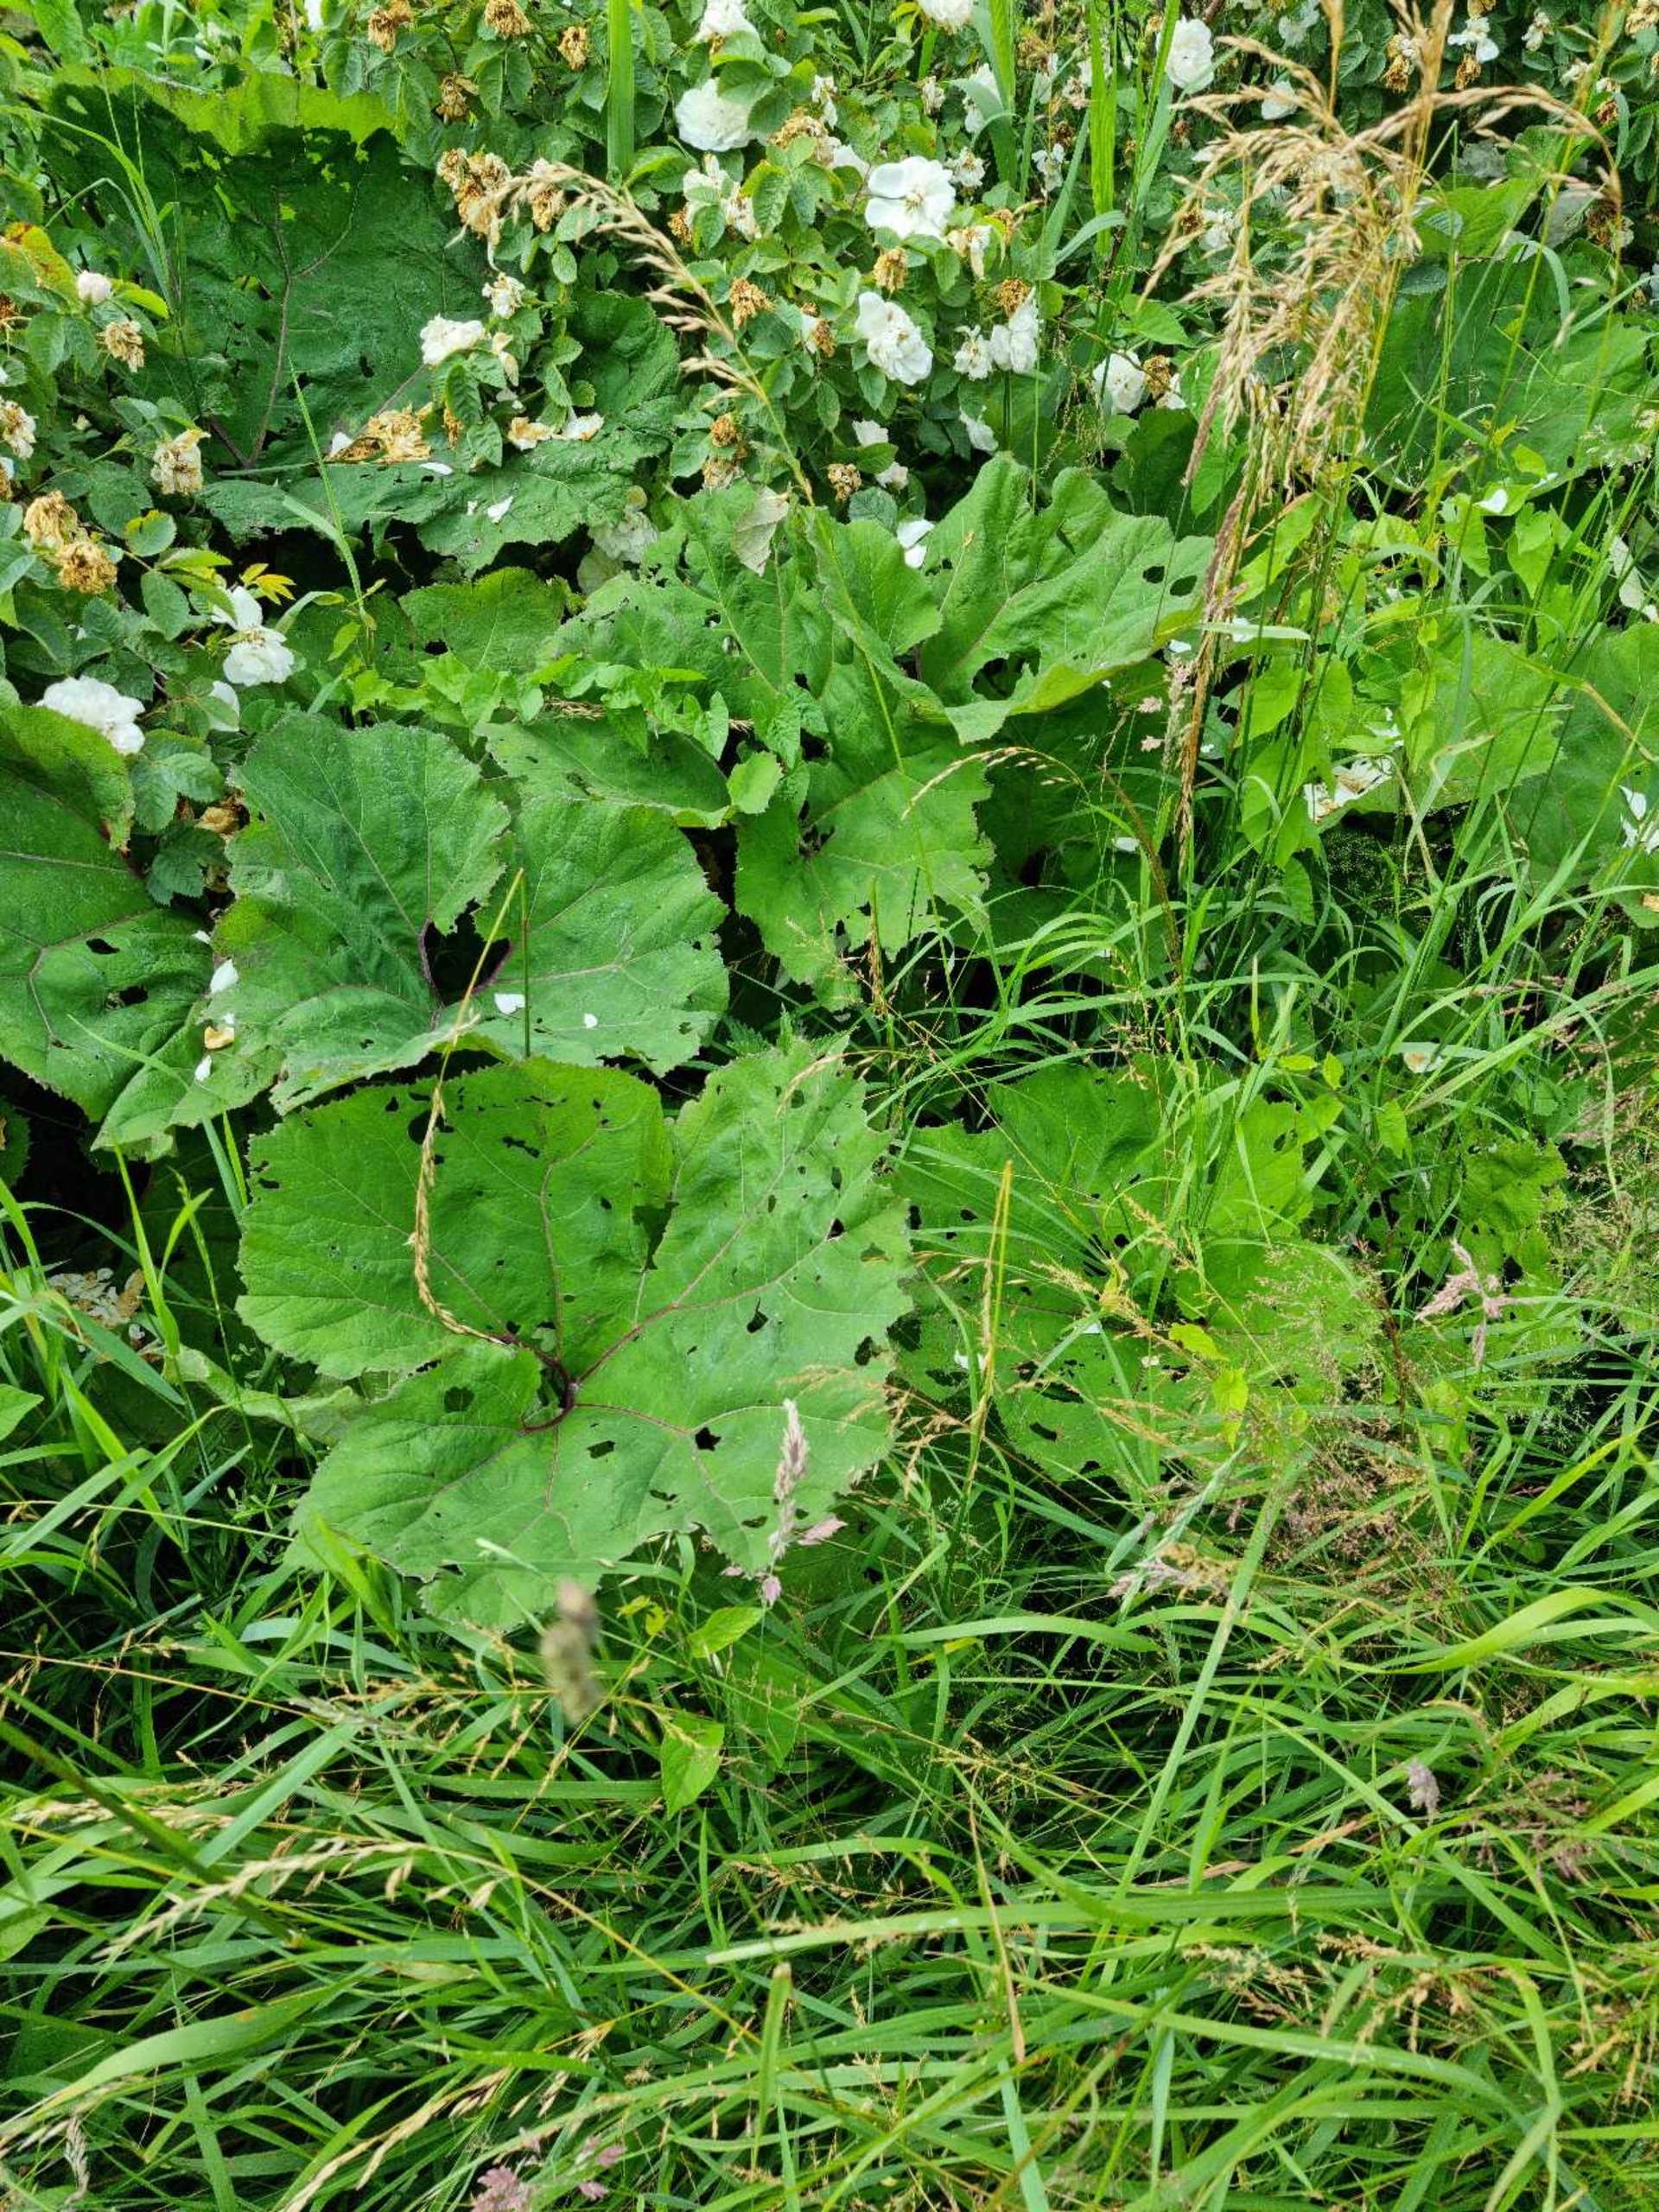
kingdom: Plantae
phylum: Tracheophyta
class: Magnoliopsida
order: Asterales
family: Asteraceae
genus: Petasites
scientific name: Petasites hybridus
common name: Rød hestehov
